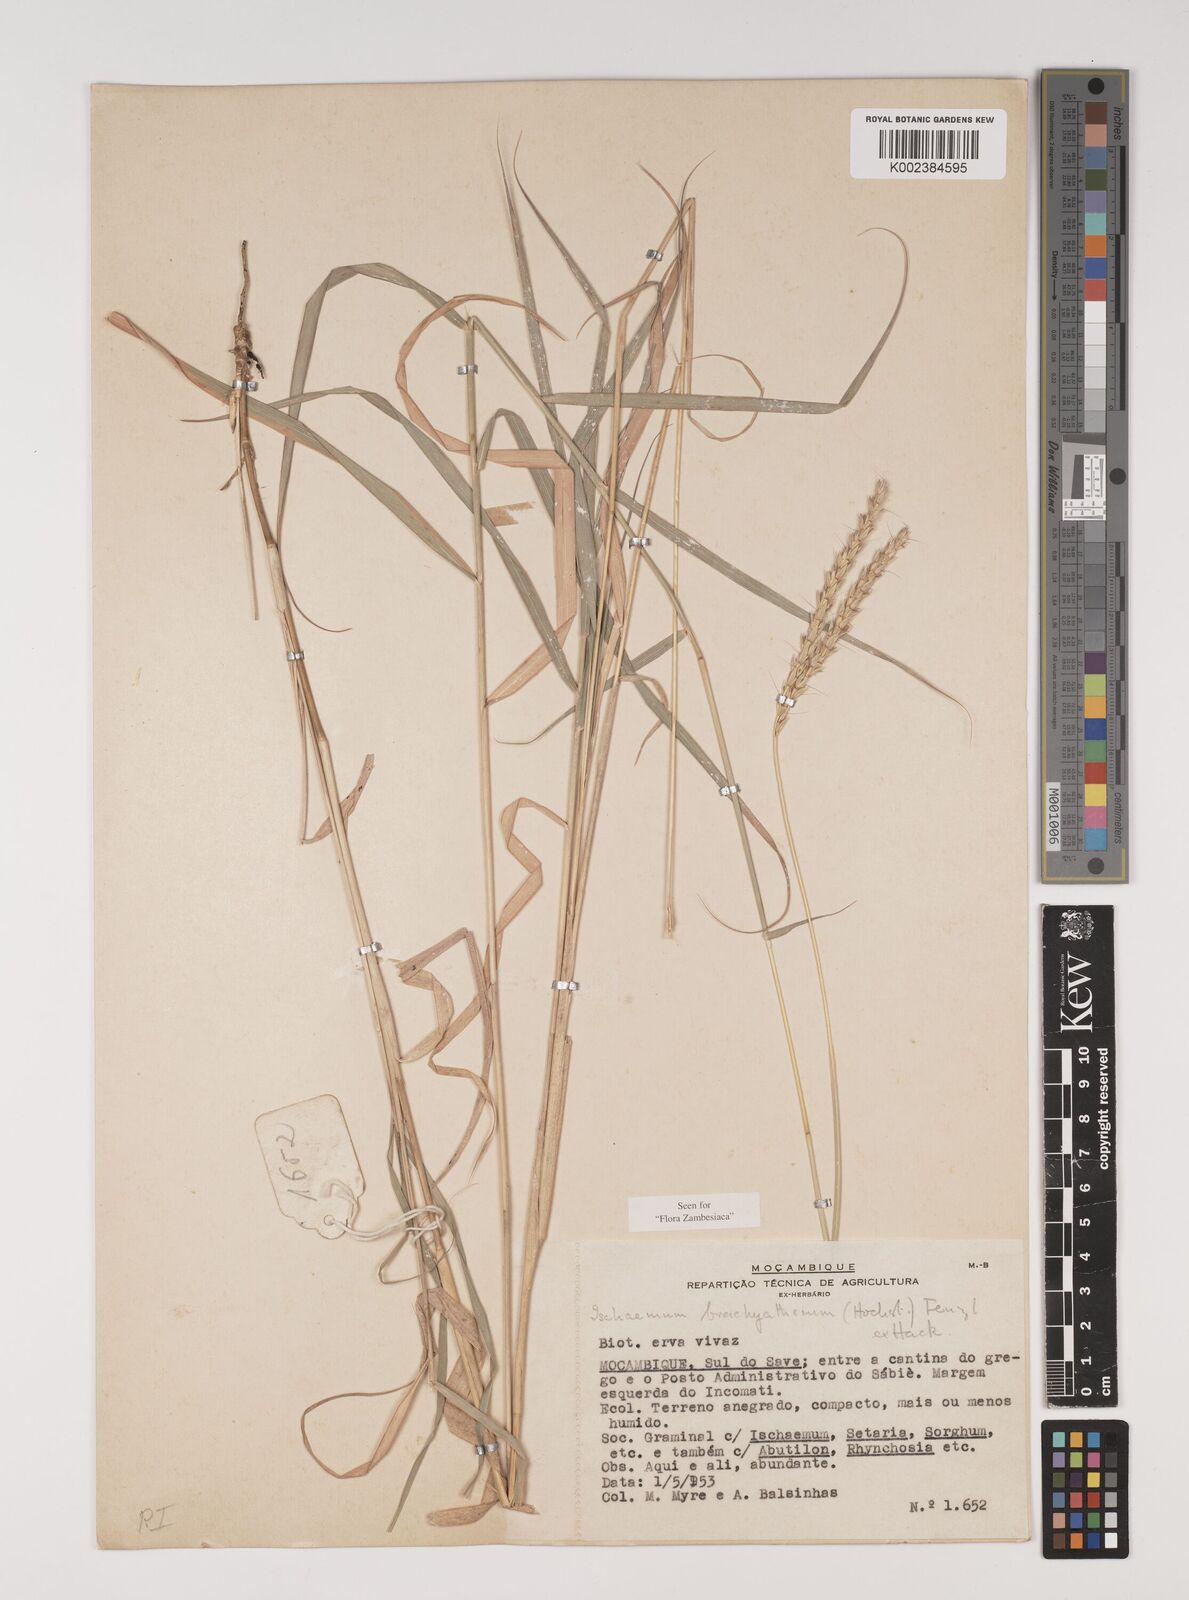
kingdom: Plantae
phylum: Tracheophyta
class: Liliopsida
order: Poales
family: Poaceae
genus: Ischaemum
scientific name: Ischaemum afrum
